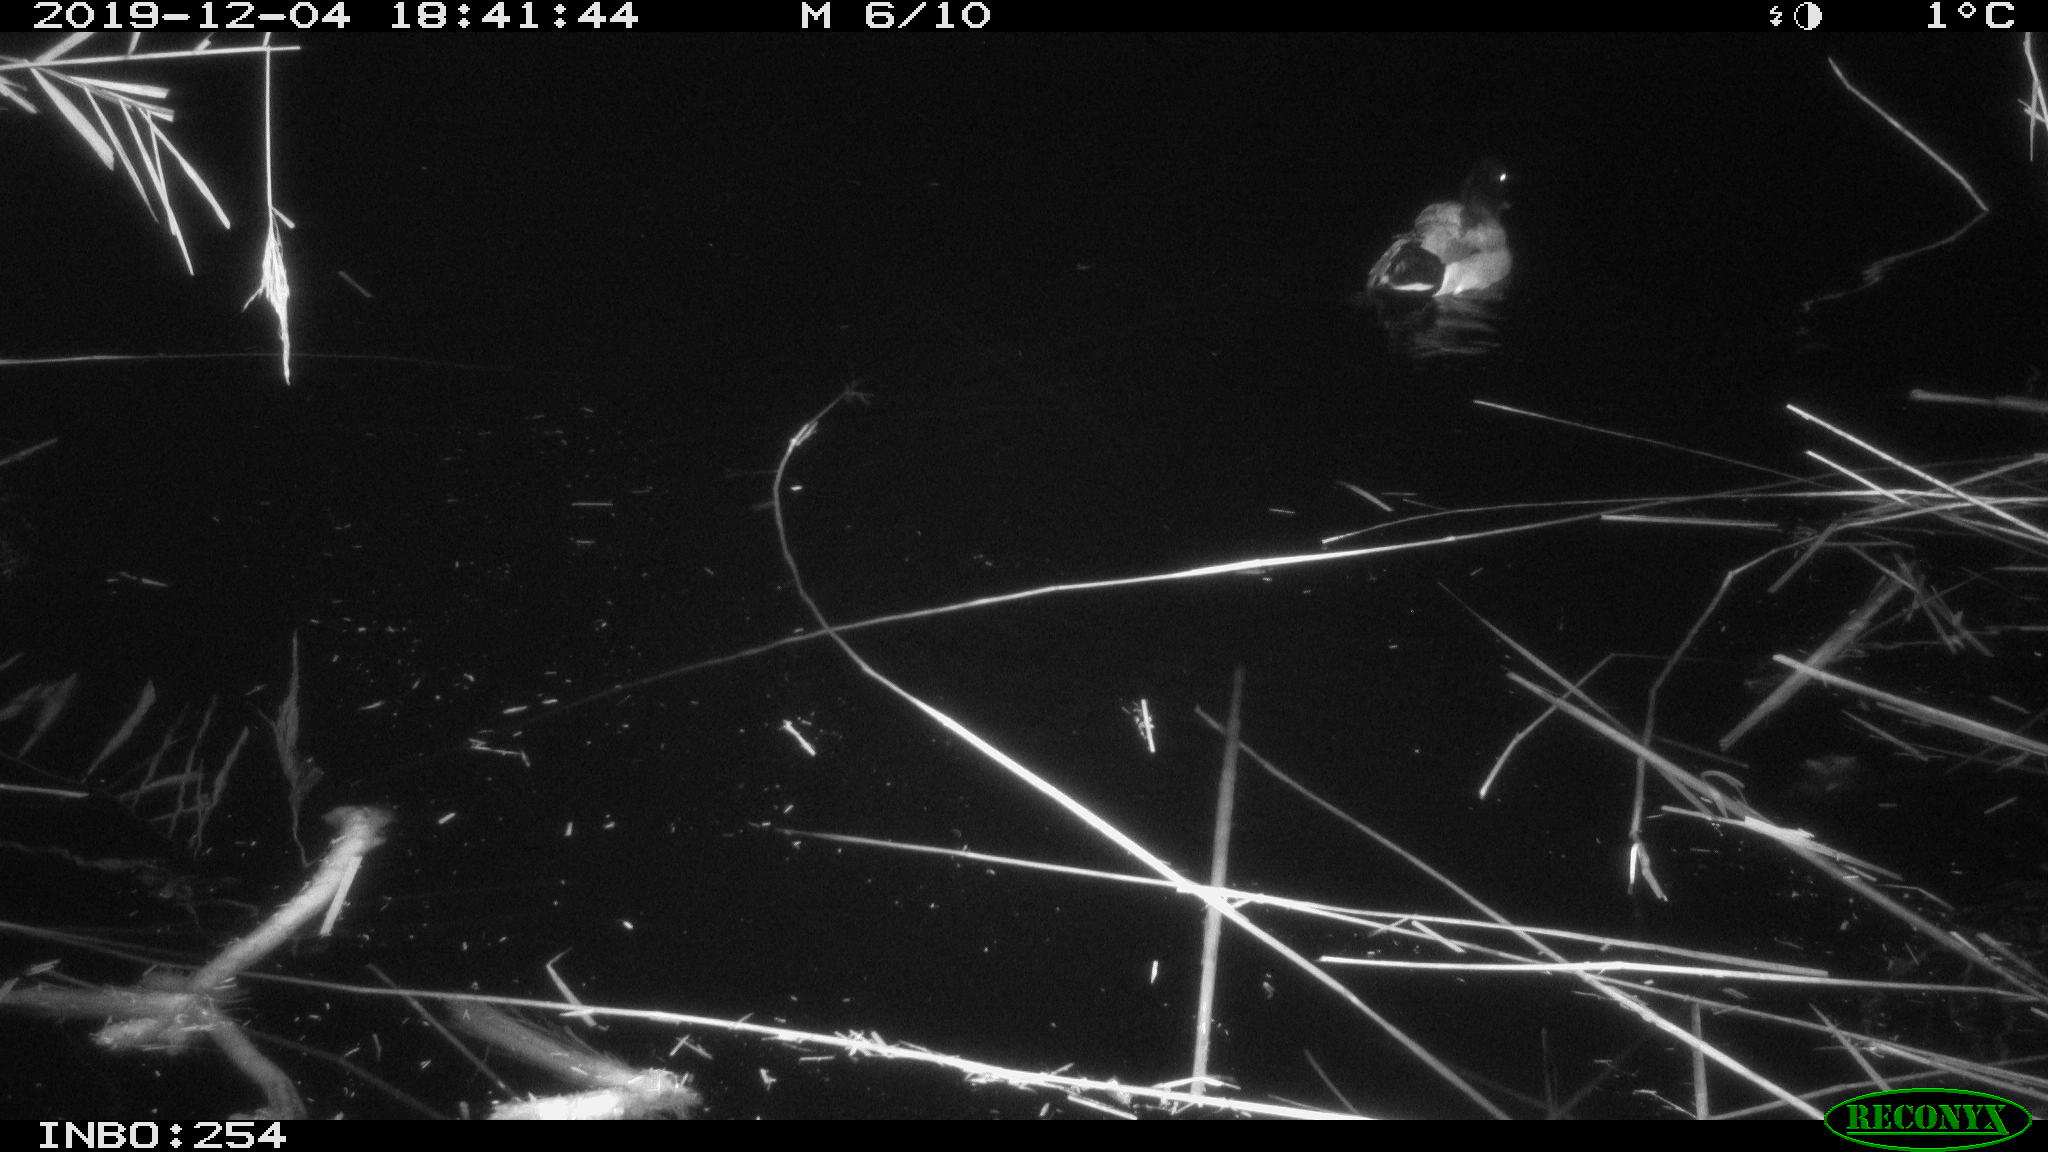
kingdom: Animalia
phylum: Chordata
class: Aves
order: Anseriformes
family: Anatidae
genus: Anas
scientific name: Anas platyrhynchos
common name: Mallard
